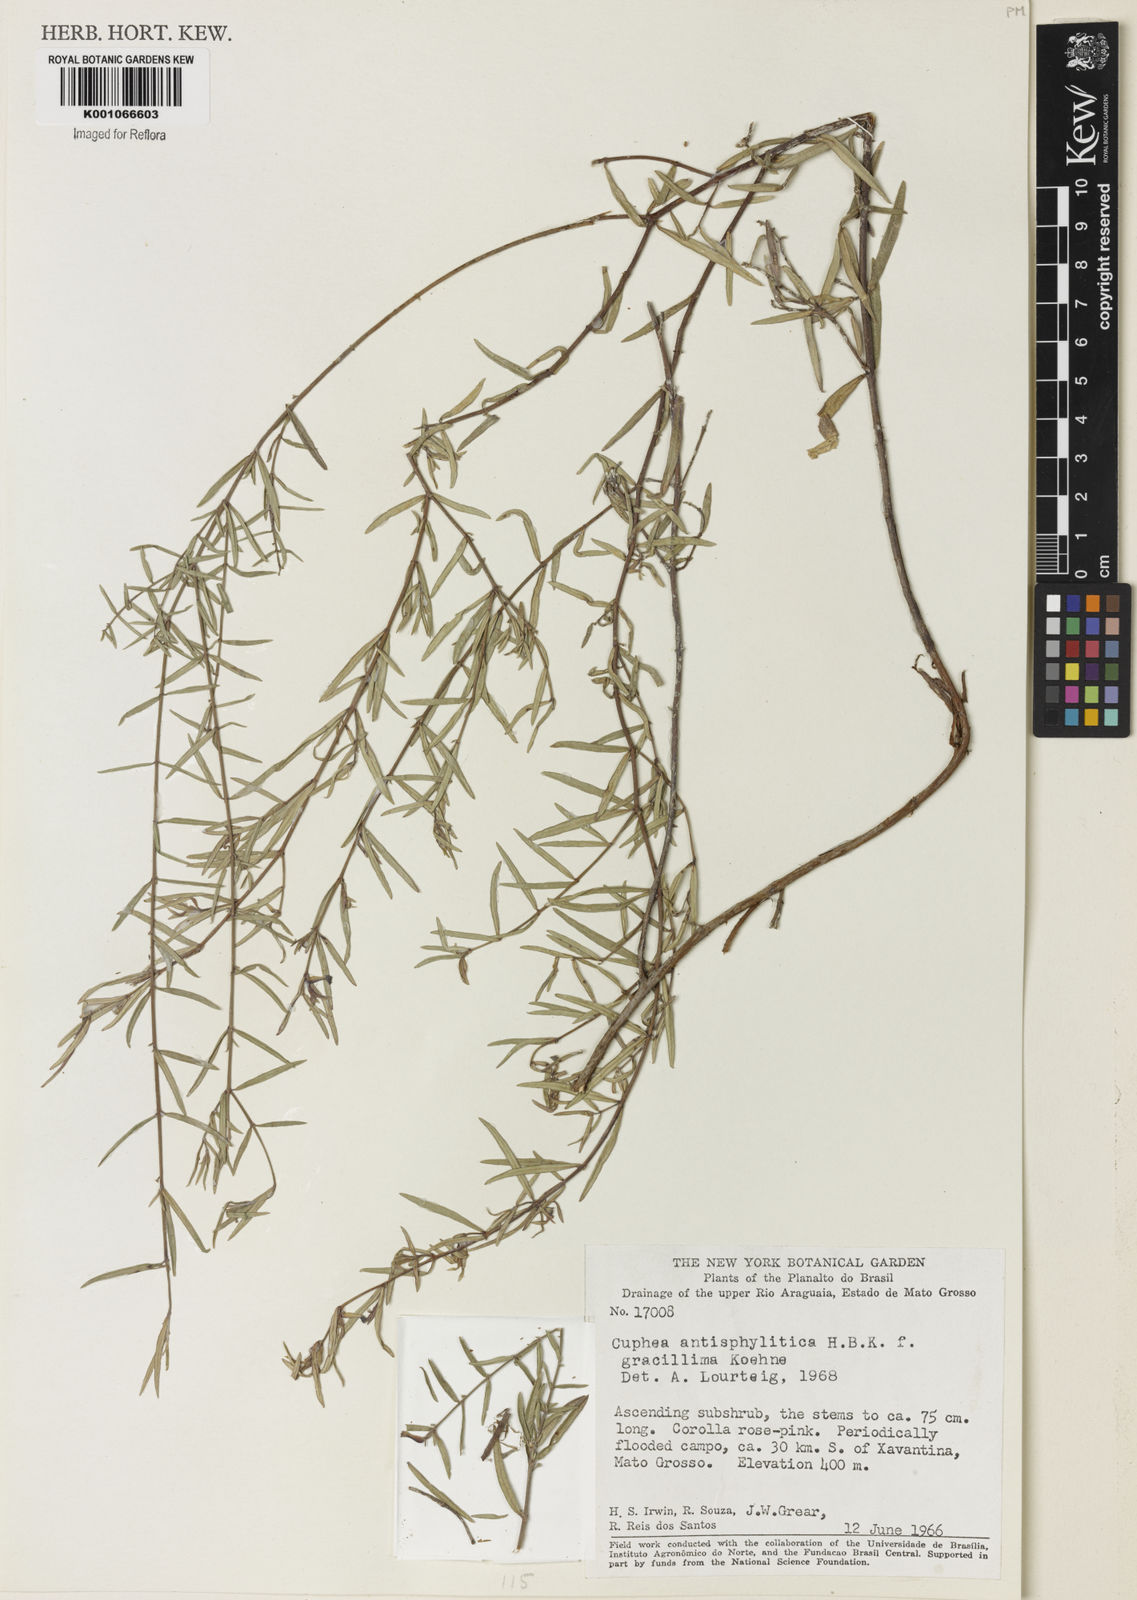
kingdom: Plantae
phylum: Tracheophyta
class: Magnoliopsida
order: Myrtales
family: Lythraceae
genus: Cuphea
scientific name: Cuphea antisyphilitica
